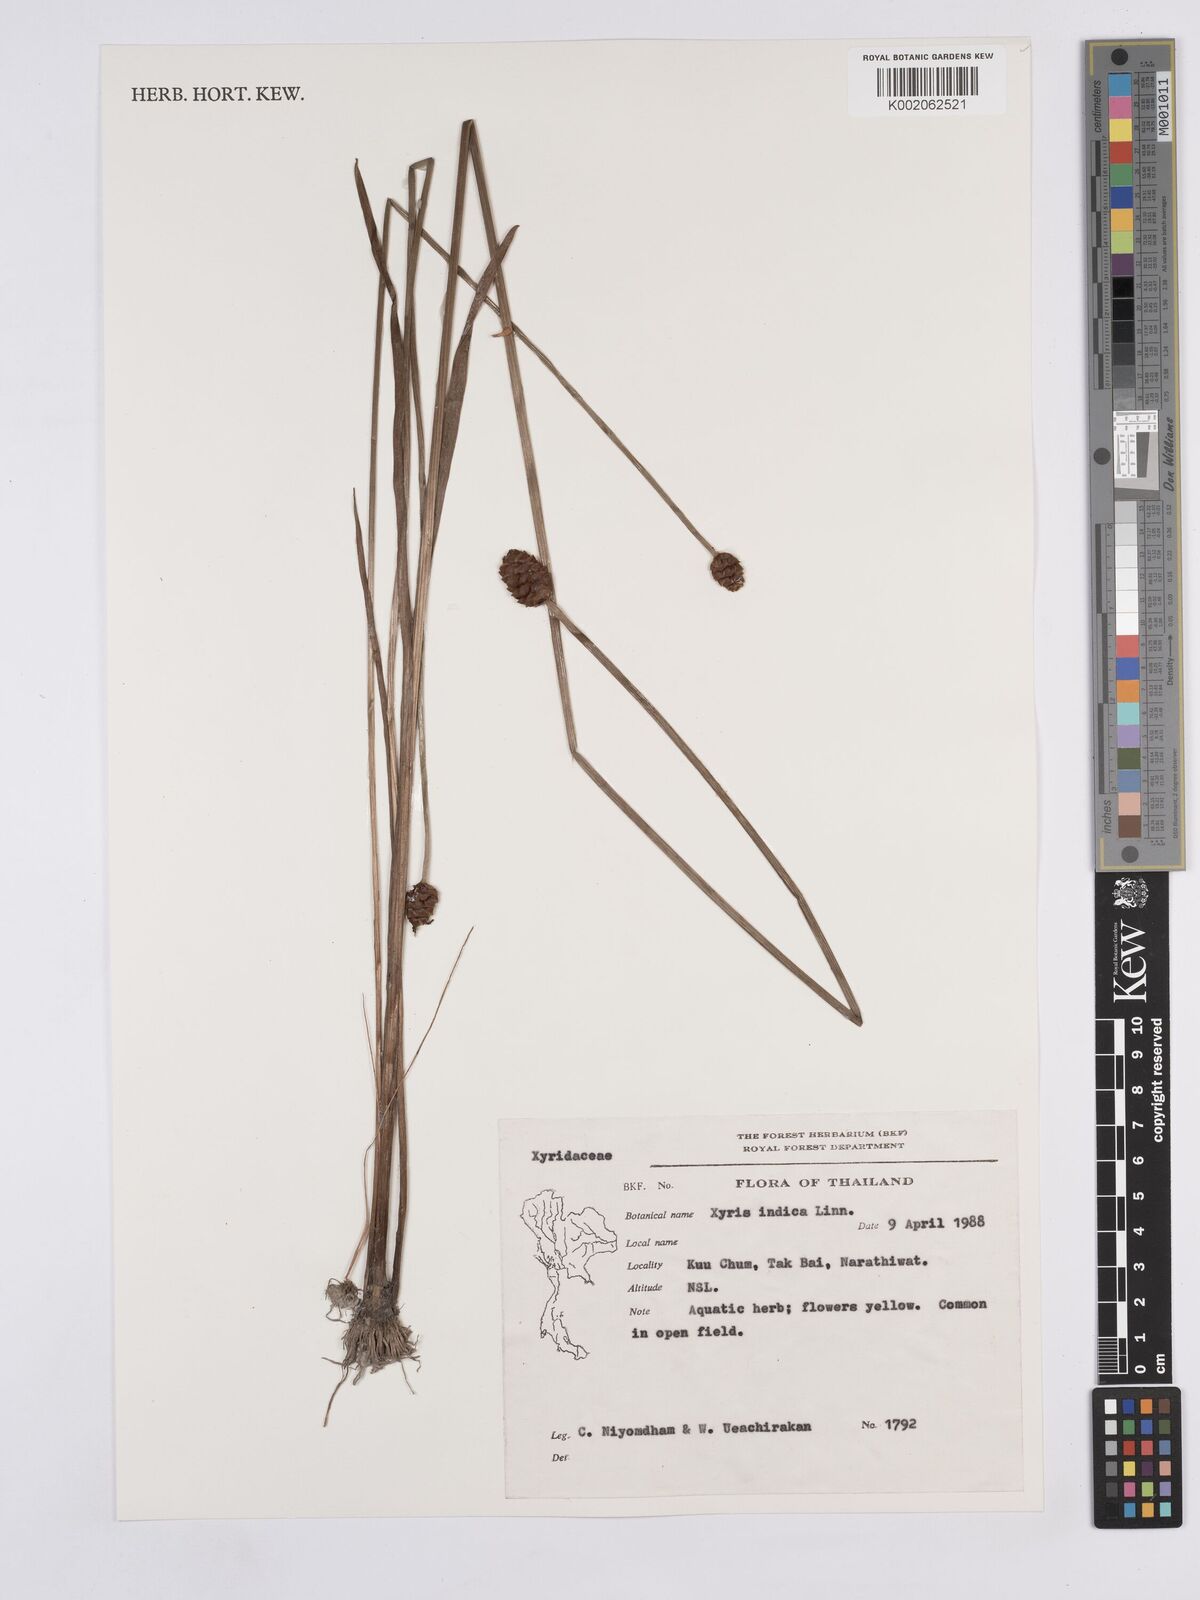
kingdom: Plantae
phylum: Tracheophyta
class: Liliopsida
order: Poales
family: Xyridaceae
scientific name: Xyridaceae
